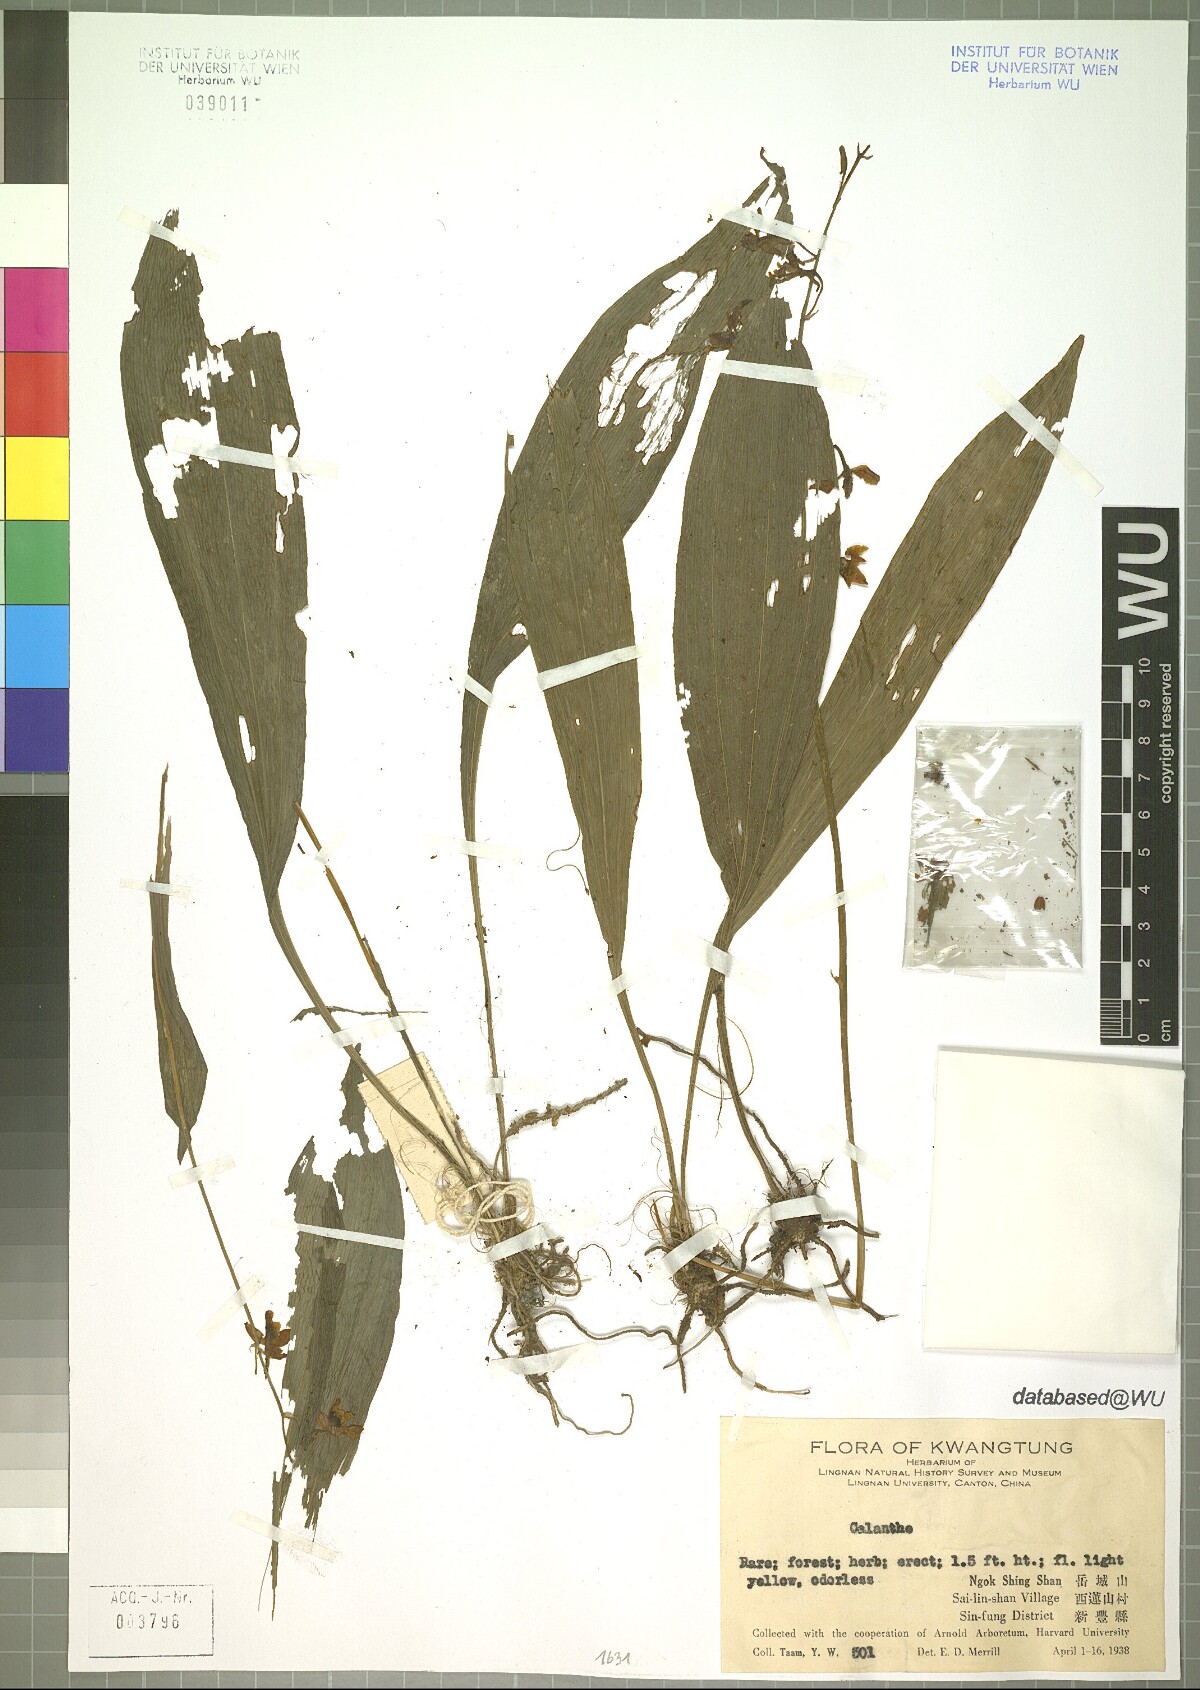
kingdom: Plantae
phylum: Tracheophyta
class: Liliopsida
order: Asparagales
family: Orchidaceae
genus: Calanthe
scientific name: Calanthe
